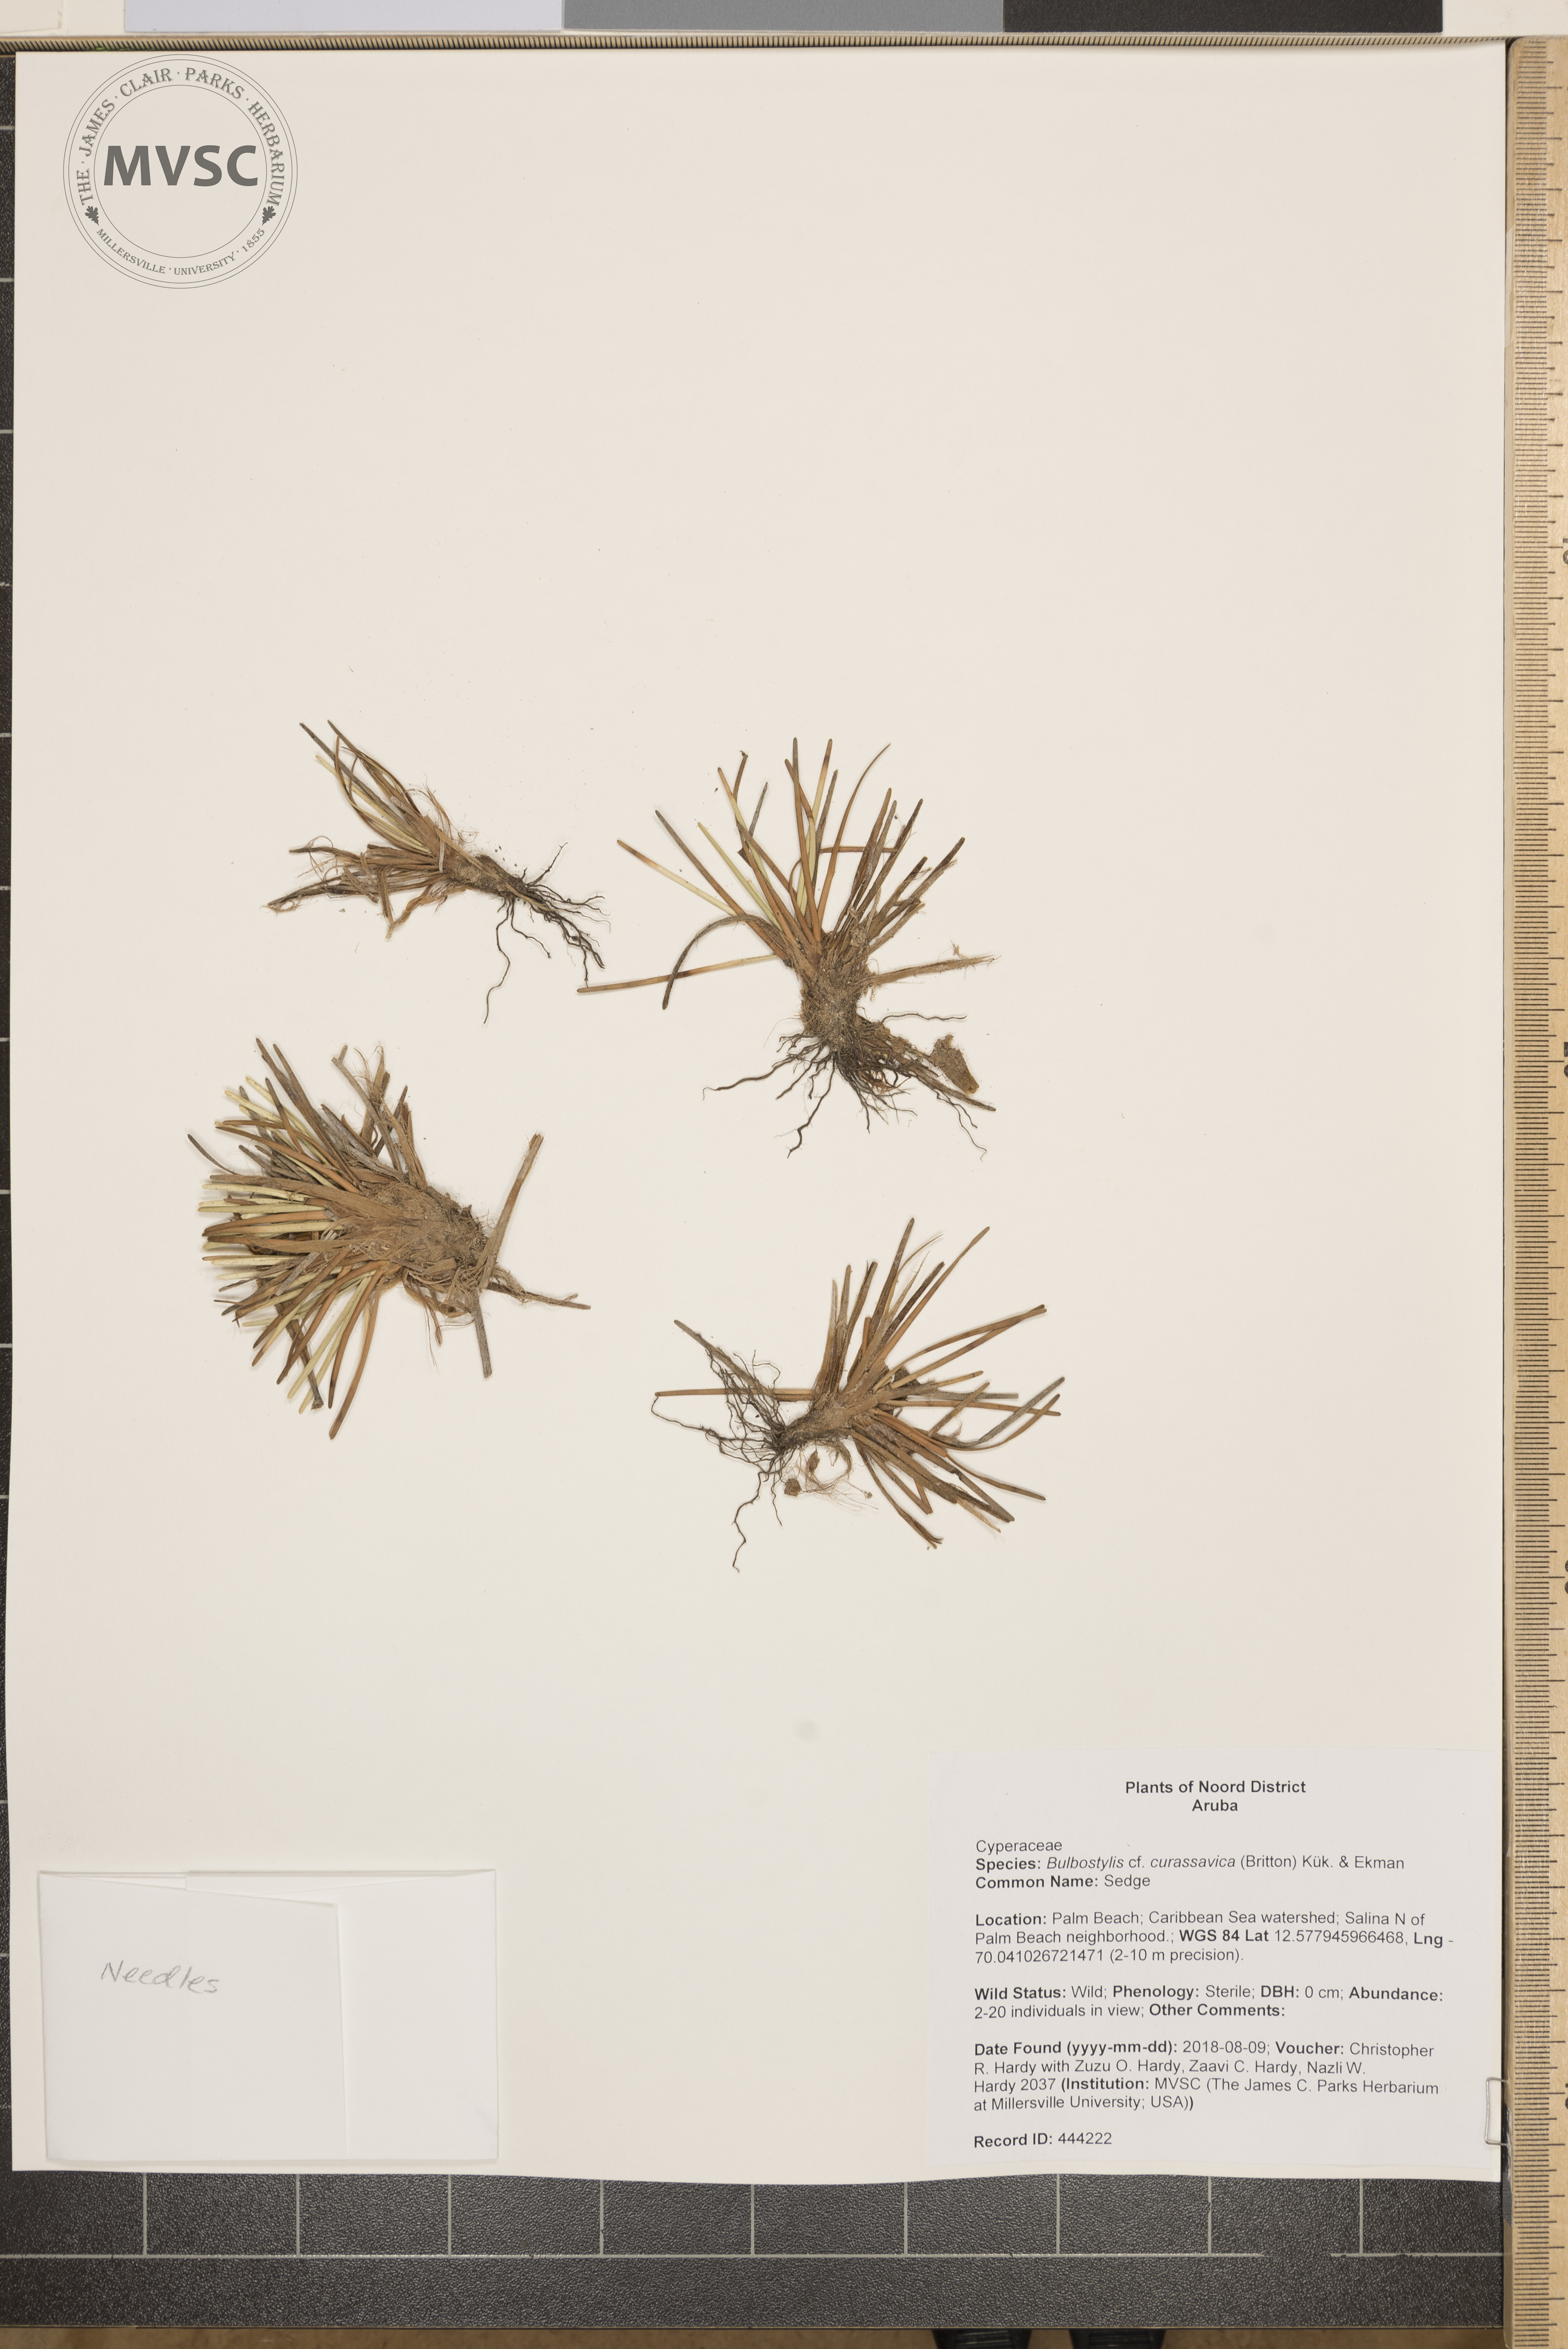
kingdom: Plantae
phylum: Tracheophyta
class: Liliopsida
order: Poales
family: Cyperaceae
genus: Fimbristylis
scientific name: Fimbristylis cymosa
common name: Sedge
